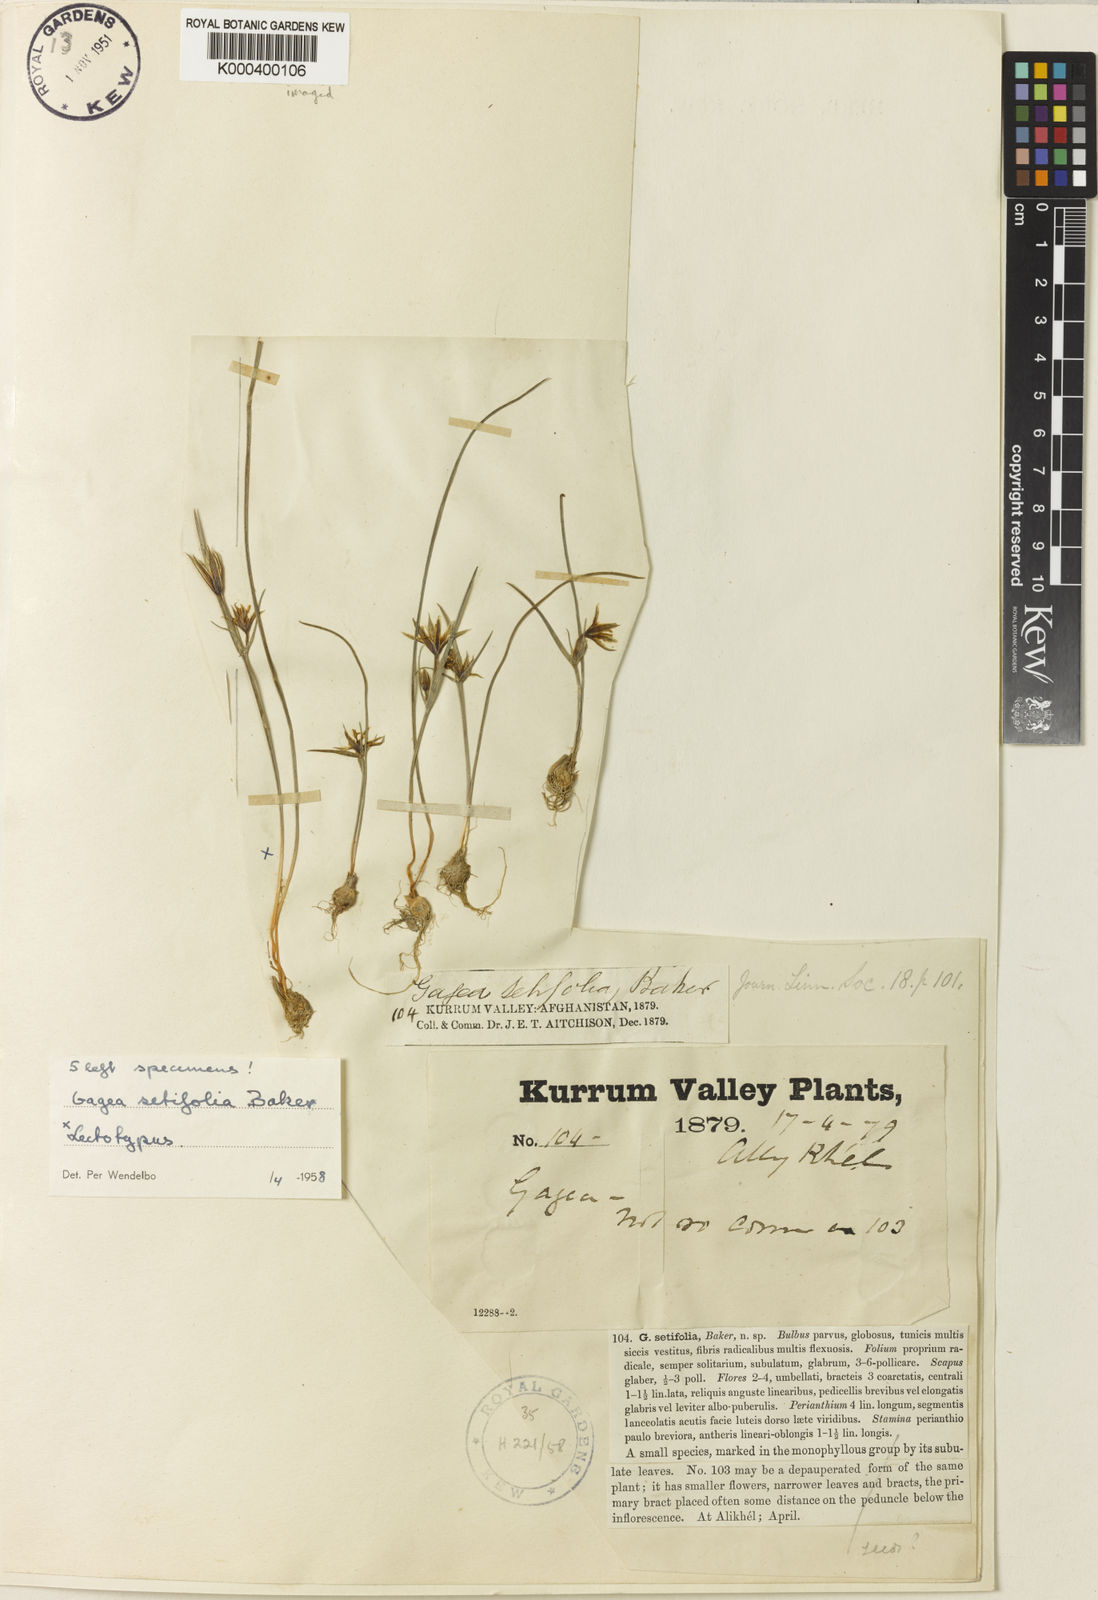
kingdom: Plantae
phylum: Tracheophyta
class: Liliopsida
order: Liliales
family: Liliaceae
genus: Gagea
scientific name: Gagea setifolia
